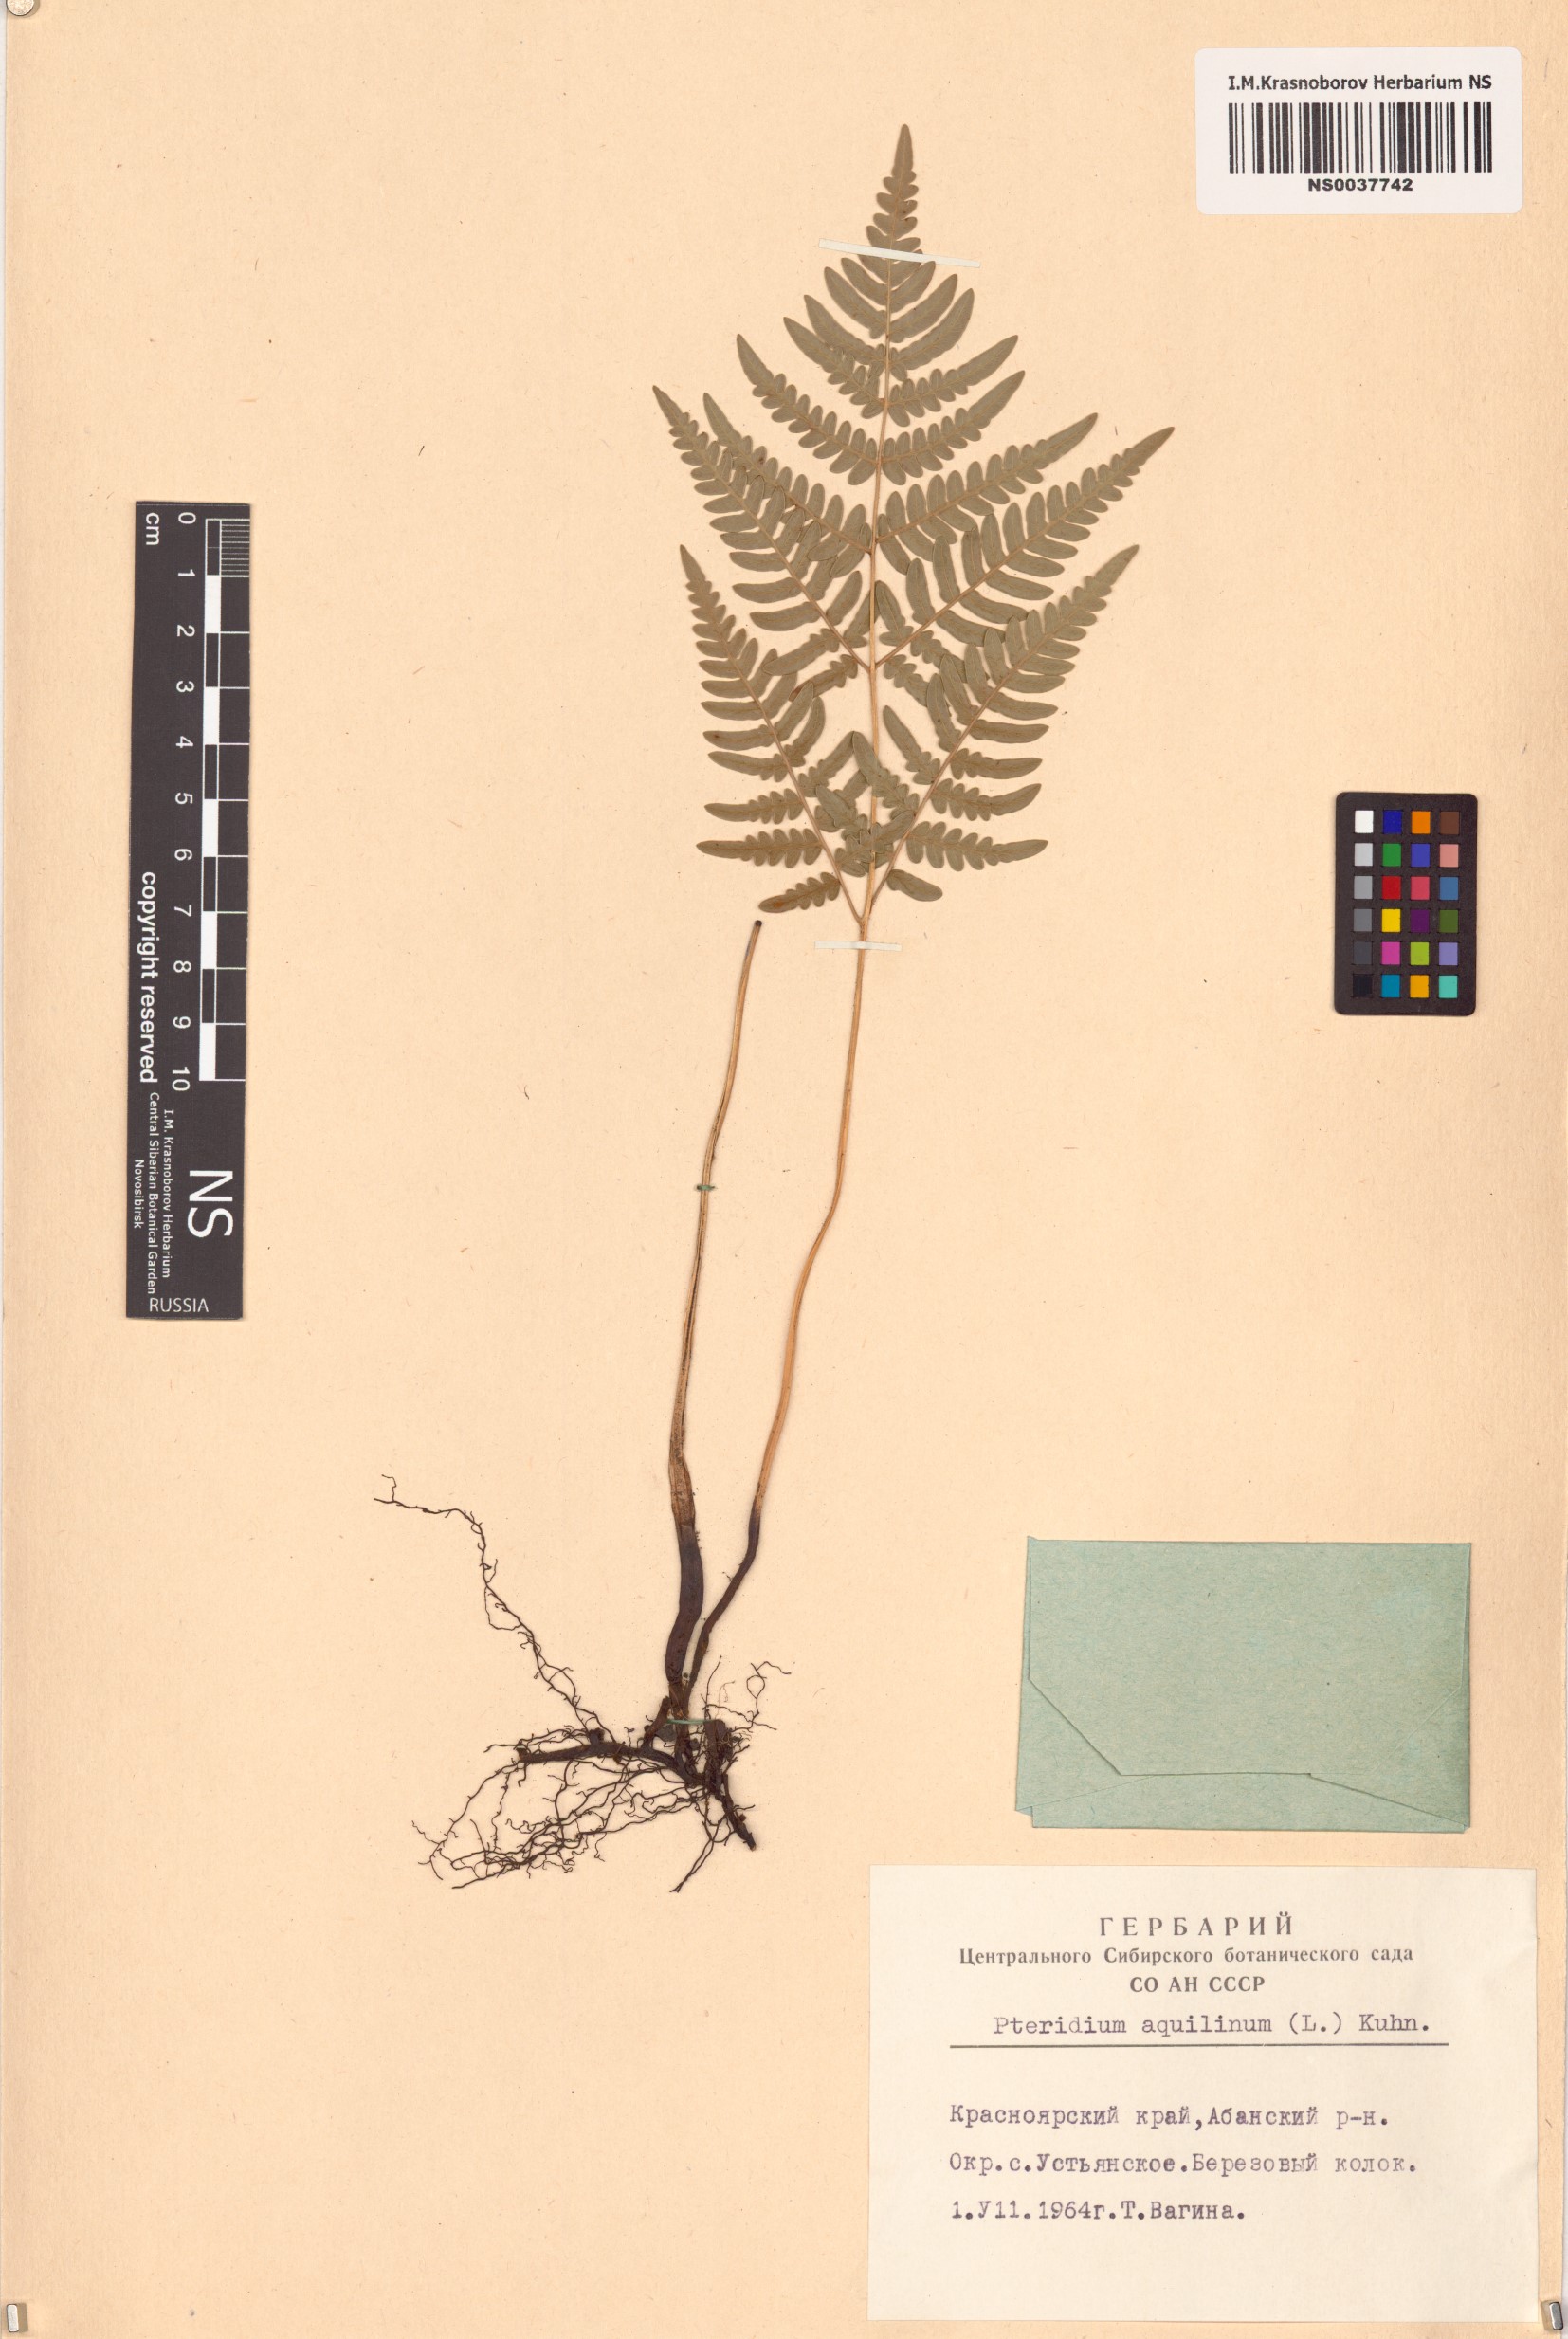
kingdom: Plantae
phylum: Tracheophyta
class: Polypodiopsida
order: Polypodiales
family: Dennstaedtiaceae
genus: Pteridium
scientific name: Pteridium aquilinum
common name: Bracken
